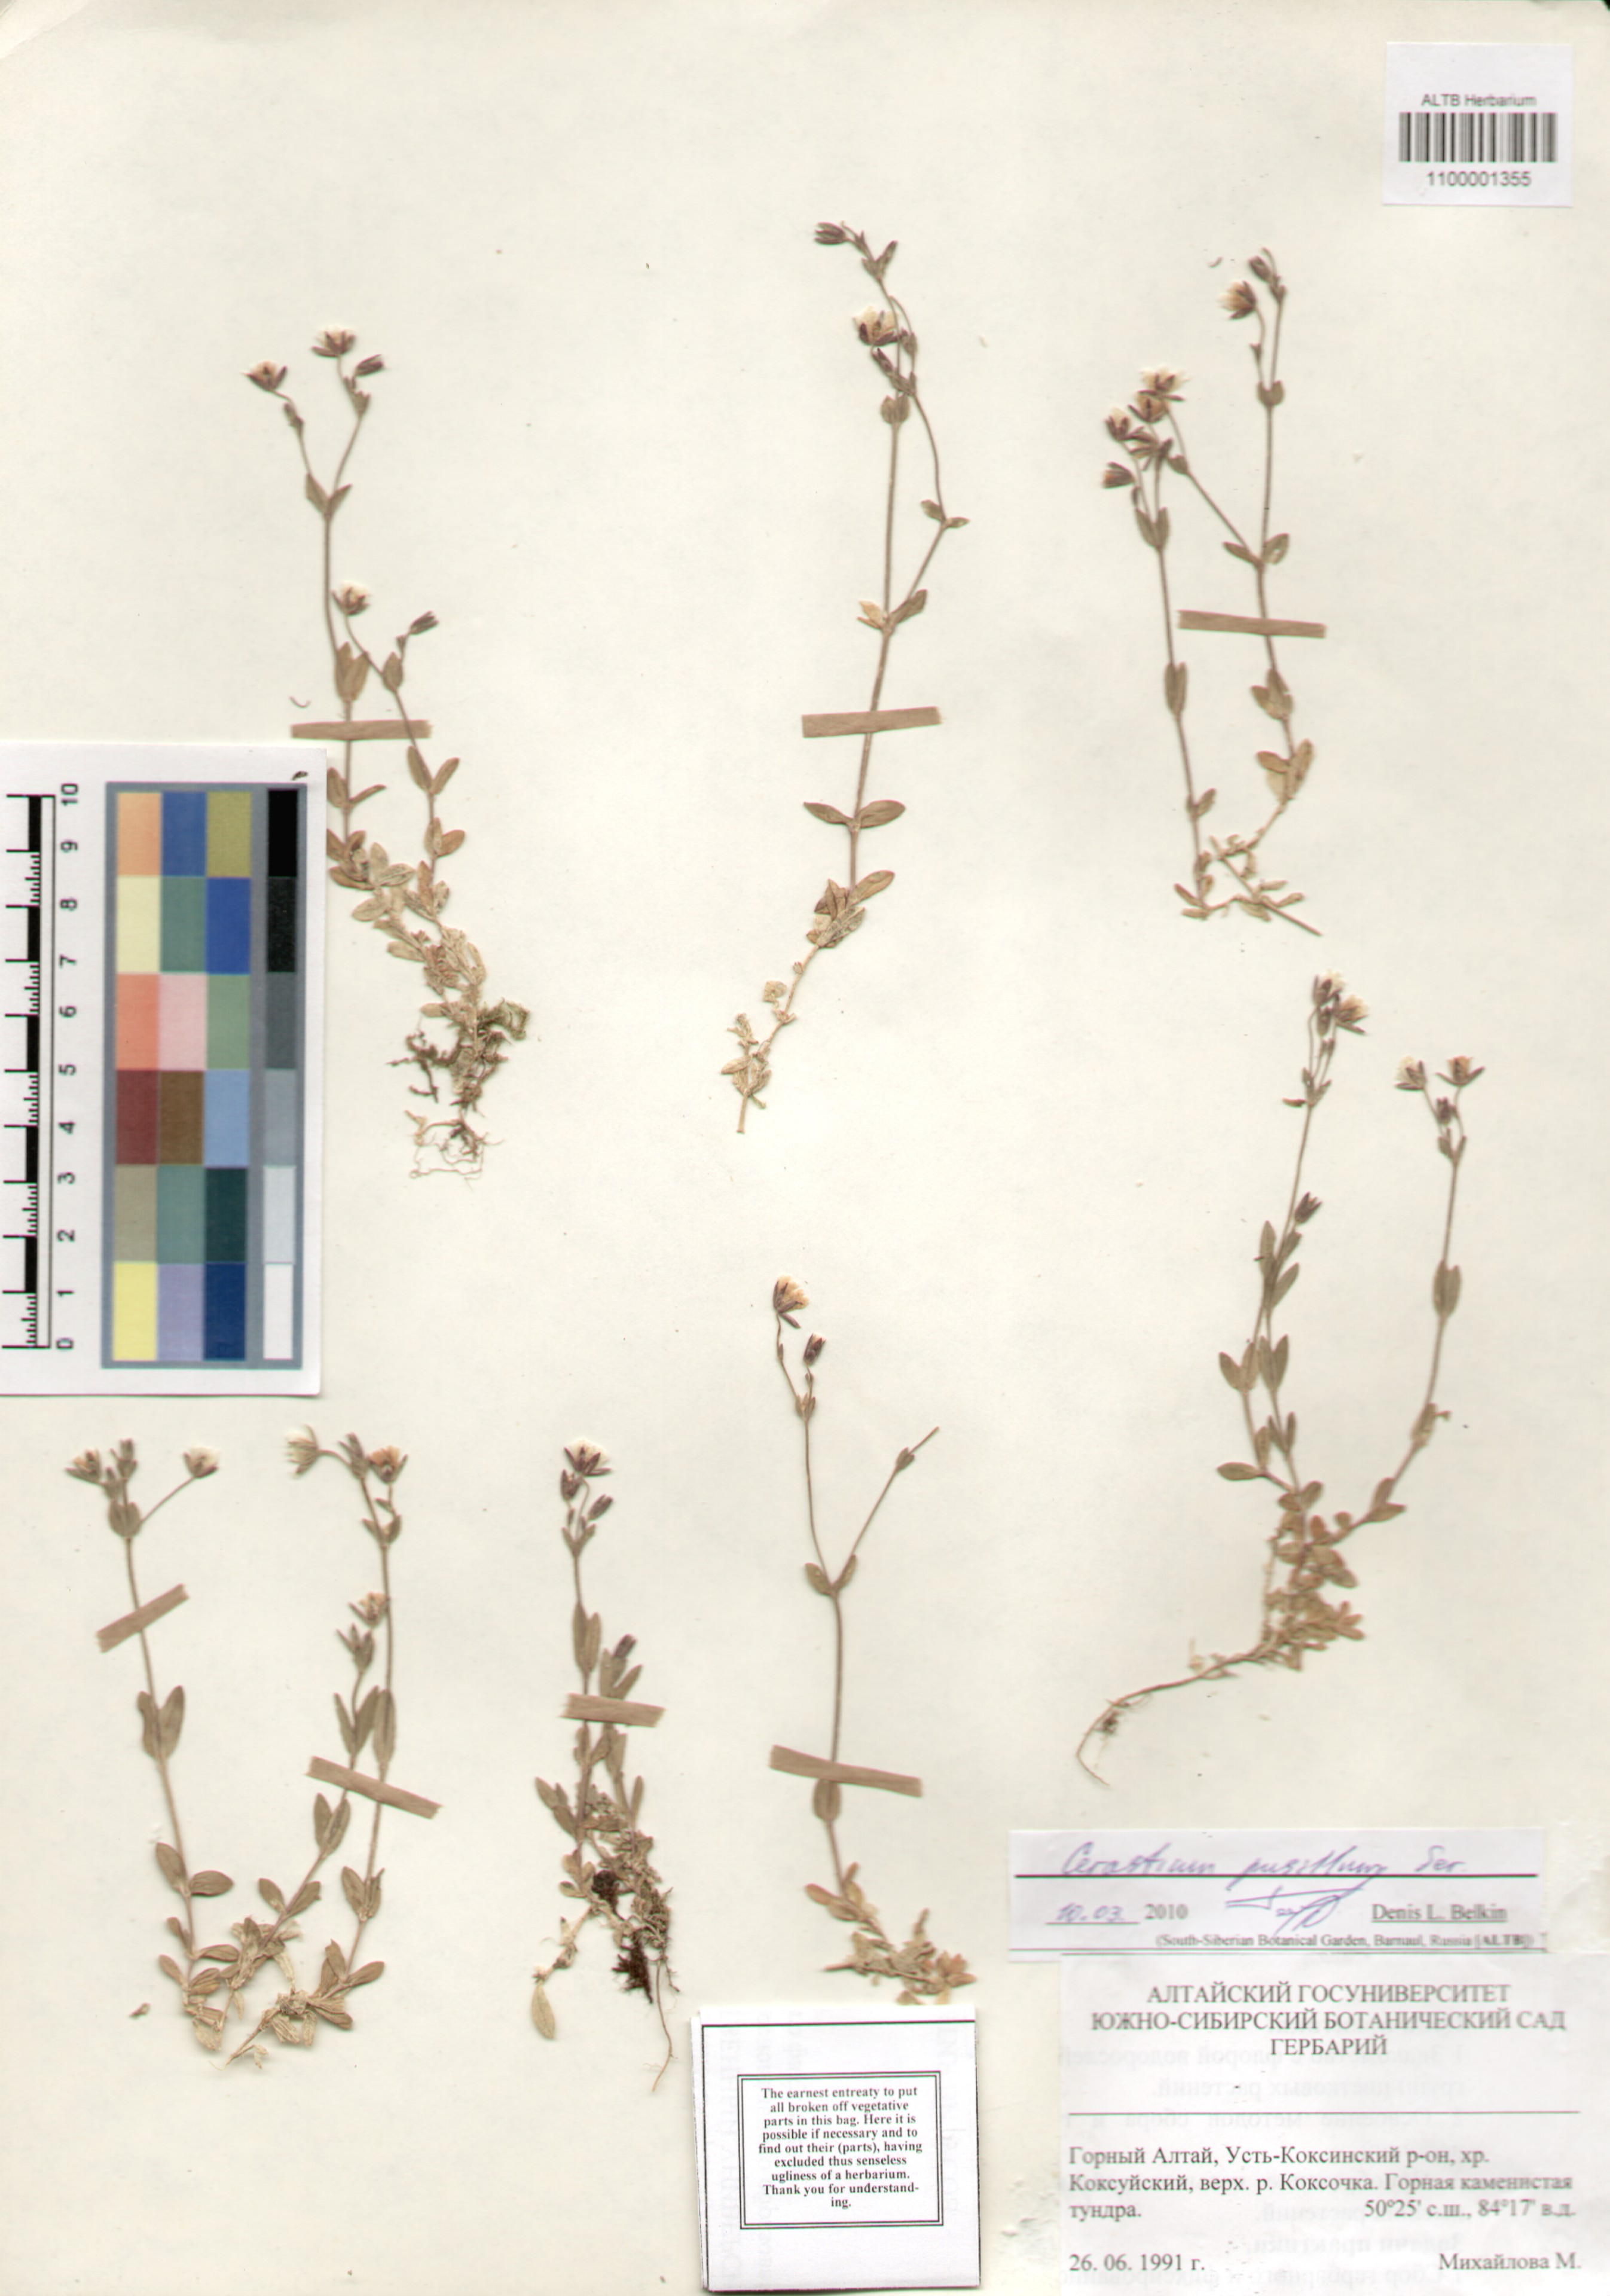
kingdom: Plantae
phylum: Tracheophyta
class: Magnoliopsida
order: Caryophyllales
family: Caryophyllaceae
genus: Cerastium
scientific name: Cerastium pusillum
